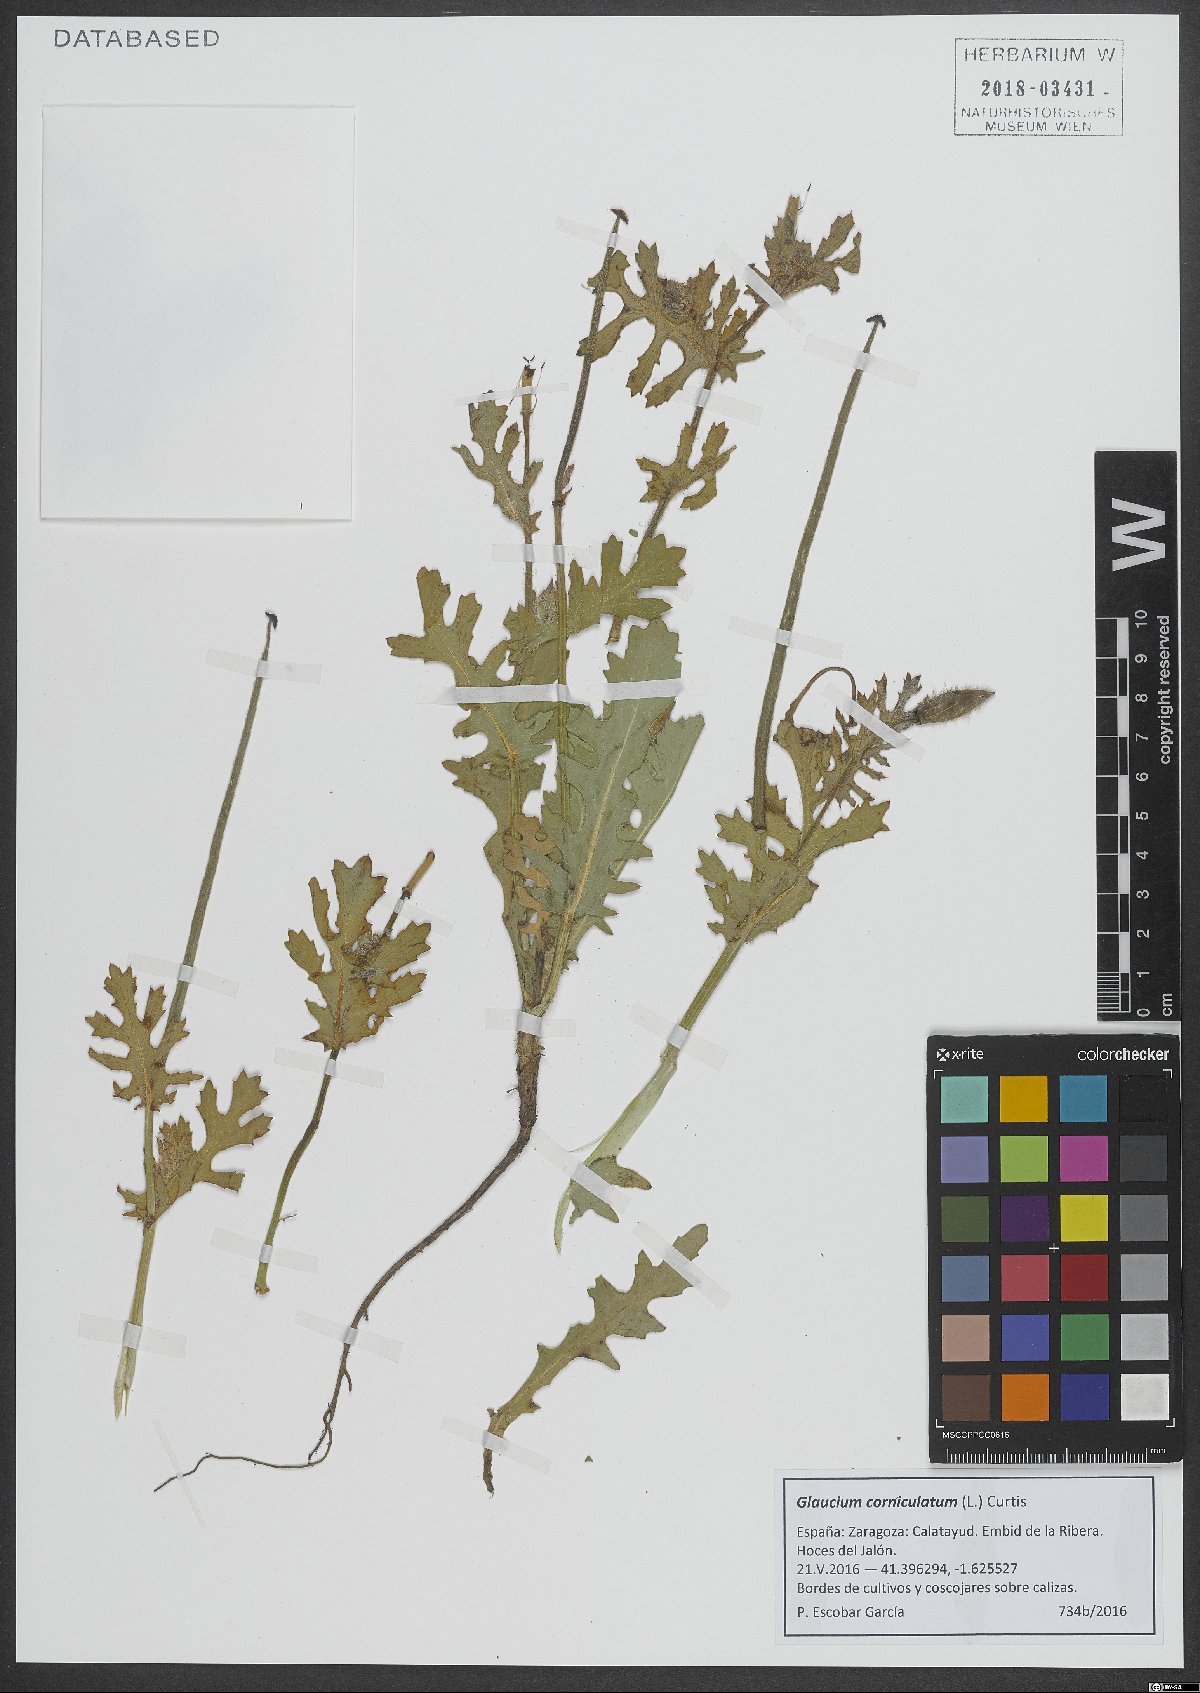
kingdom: Plantae
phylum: Tracheophyta
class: Magnoliopsida
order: Ranunculales
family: Papaveraceae
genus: Glaucium
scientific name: Glaucium corniculatum
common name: Red horned-poppy
